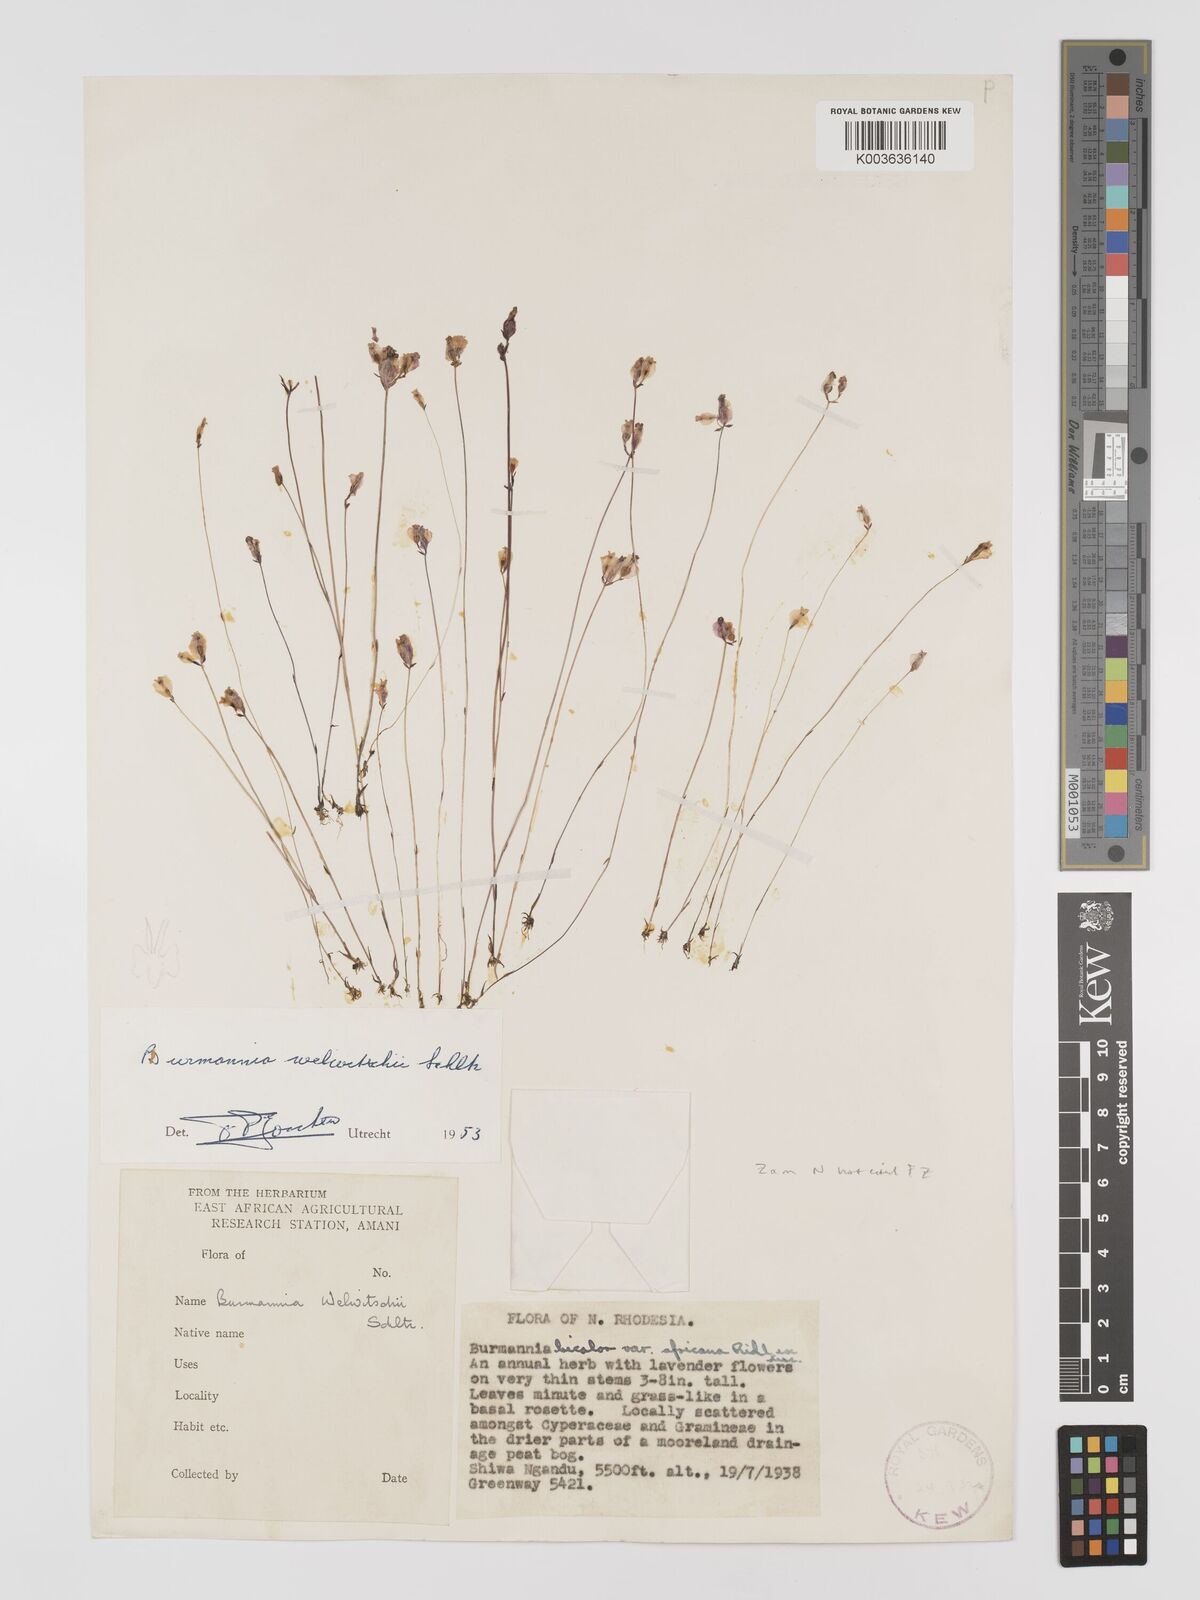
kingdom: Plantae
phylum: Tracheophyta
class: Liliopsida
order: Dioscoreales
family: Burmanniaceae
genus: Burmannia
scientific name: Burmannia madagascariensis
